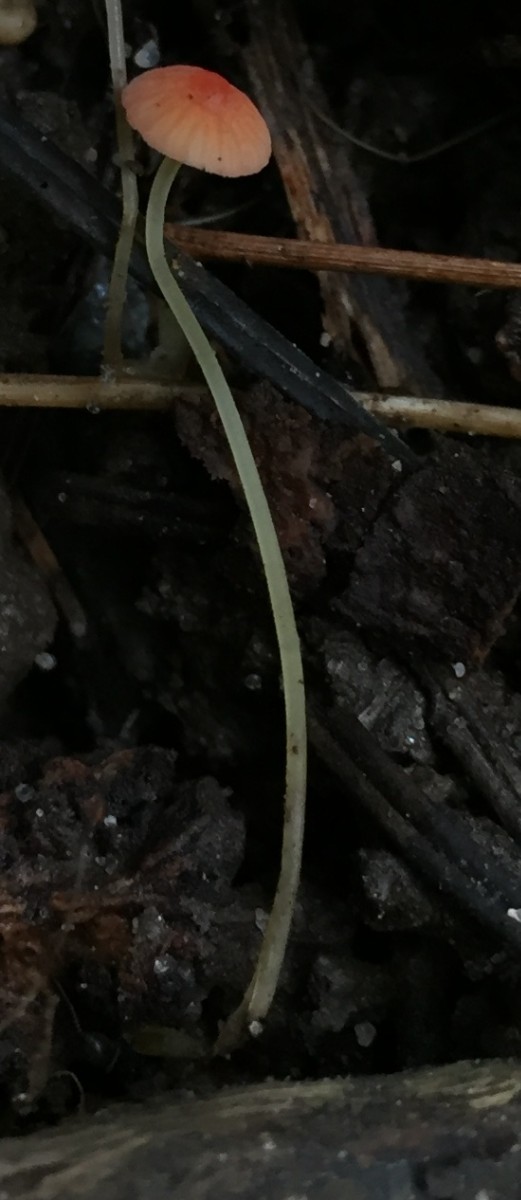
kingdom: Fungi
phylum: Basidiomycota
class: Agaricomycetes
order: Agaricales
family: Mycenaceae
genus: Mycena
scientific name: Mycena acicula
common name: orange huesvamp
